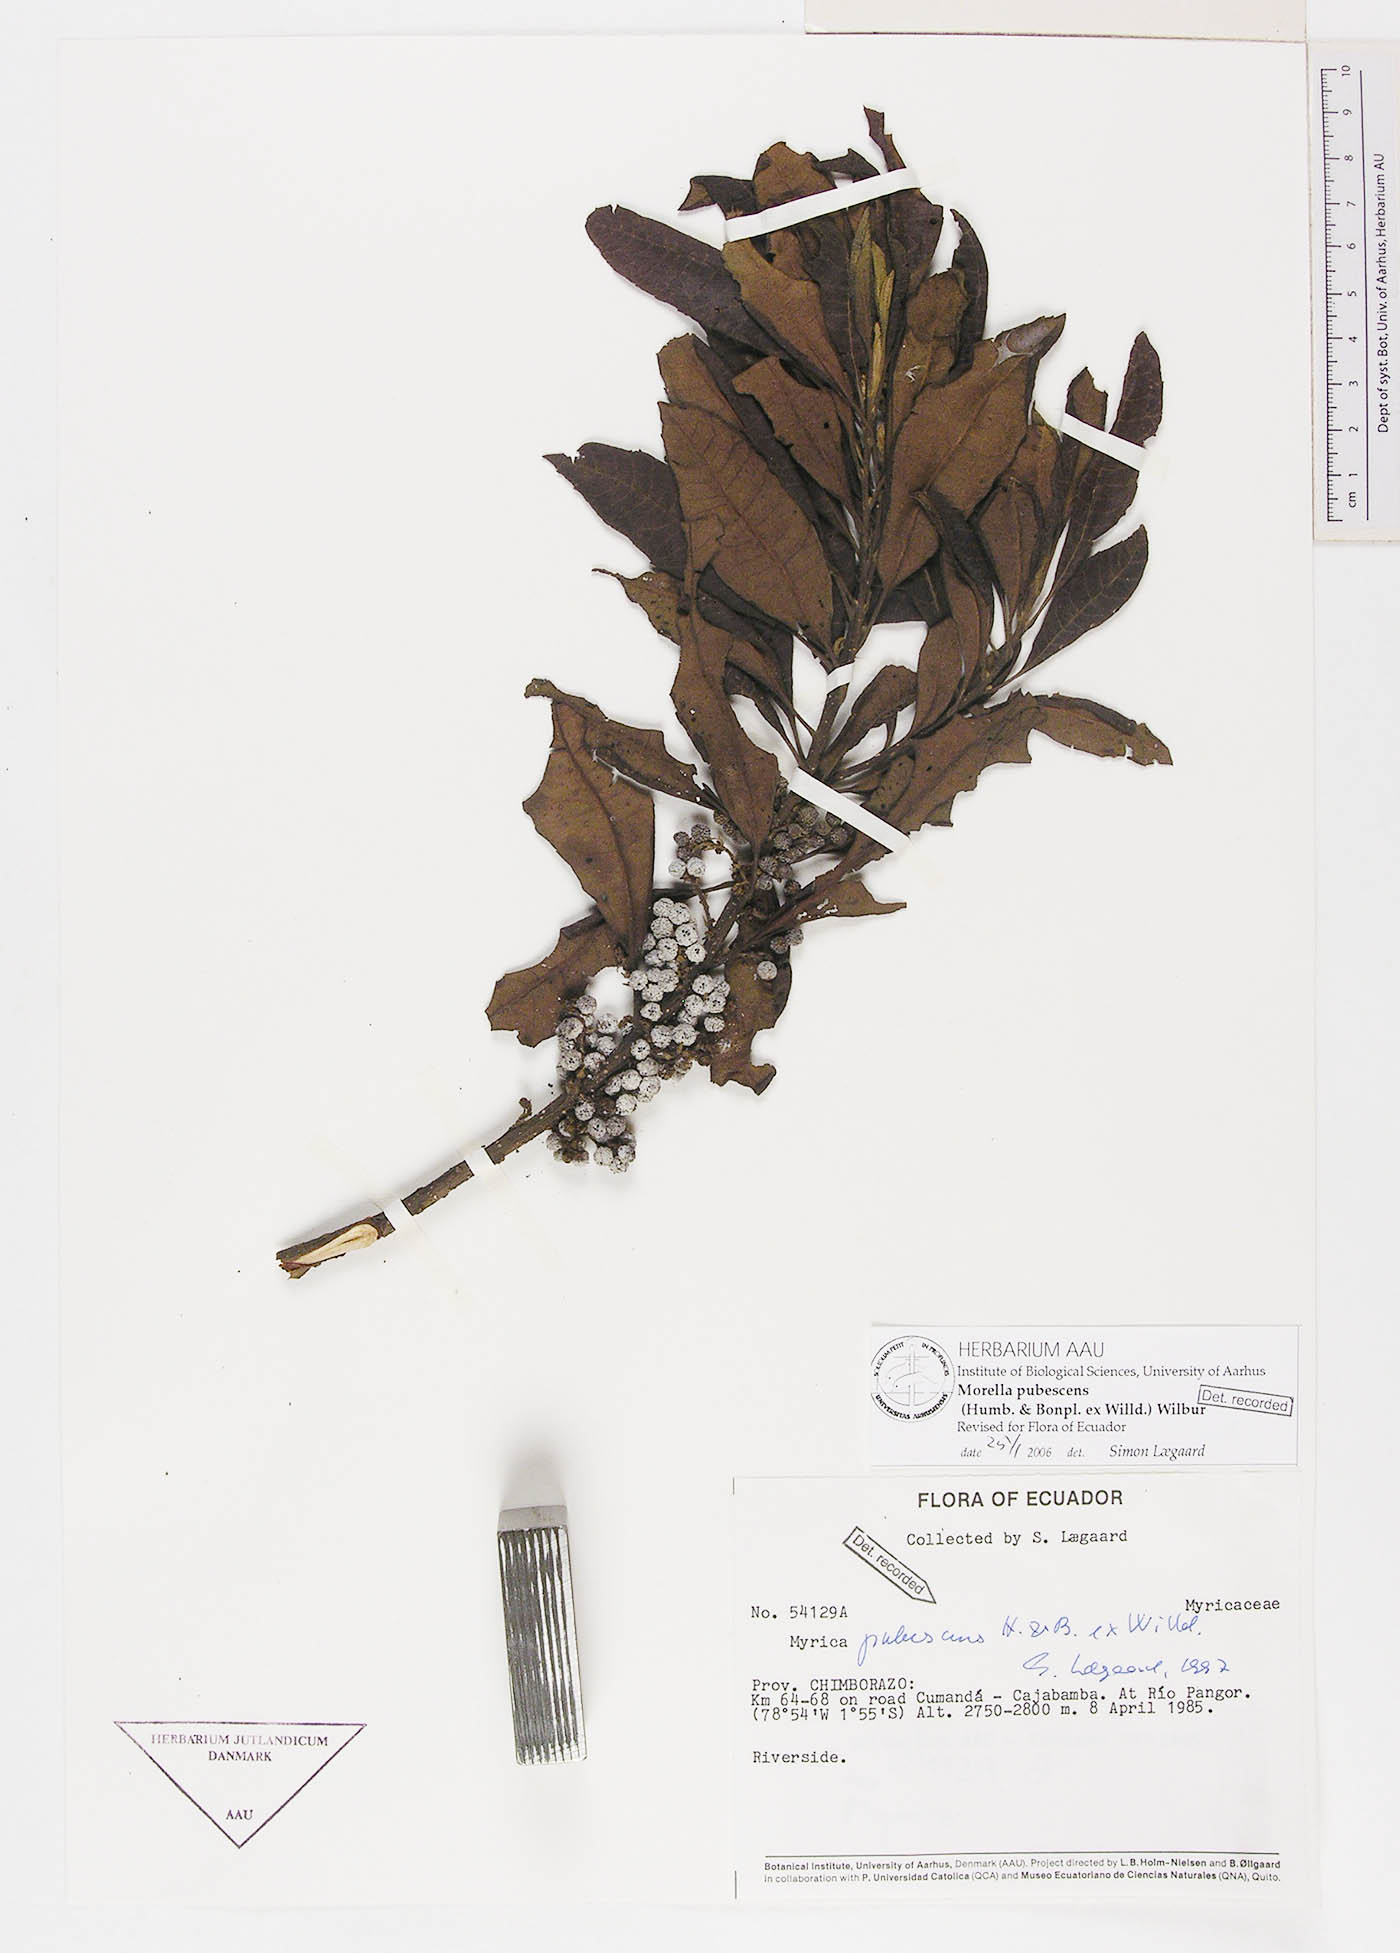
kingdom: Plantae
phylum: Tracheophyta
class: Magnoliopsida
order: Fagales
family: Myricaceae
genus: Morella
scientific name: Morella pubescens
